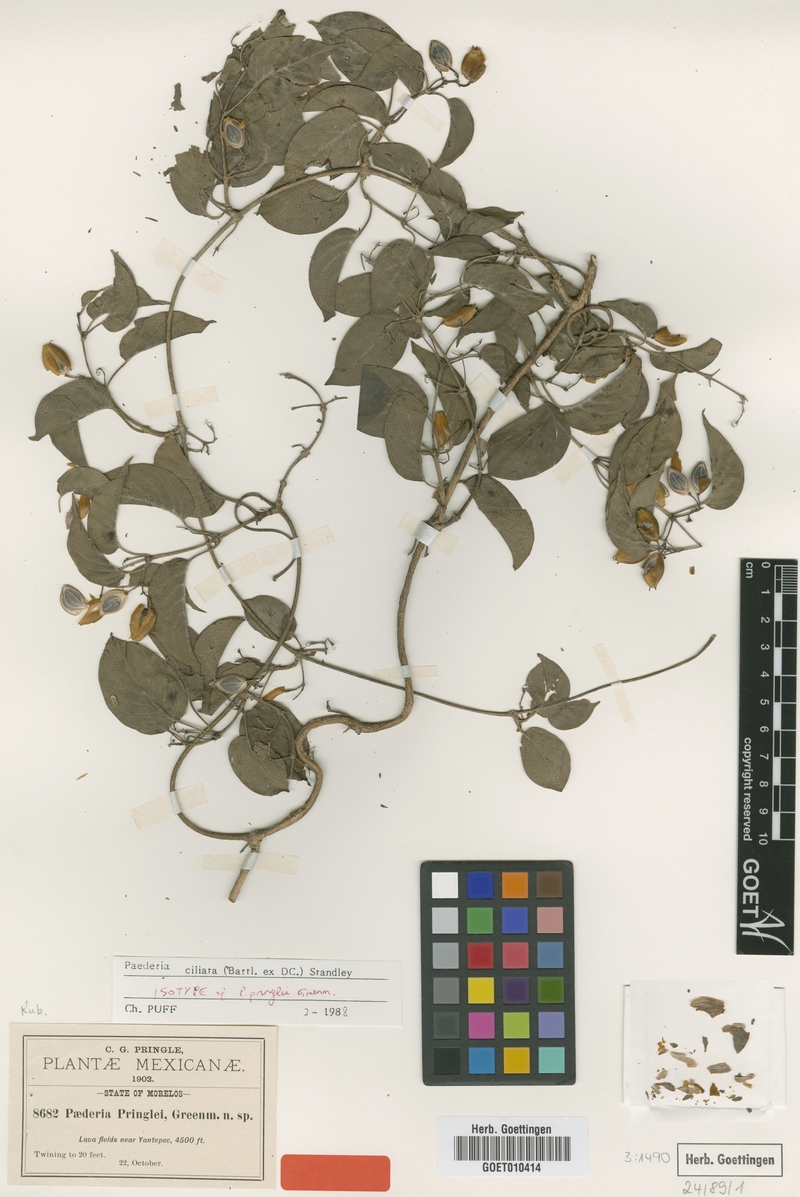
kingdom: Plantae
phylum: Tracheophyta
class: Magnoliopsida
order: Gentianales
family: Rubiaceae
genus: Paederia
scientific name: Paederia ciliata
